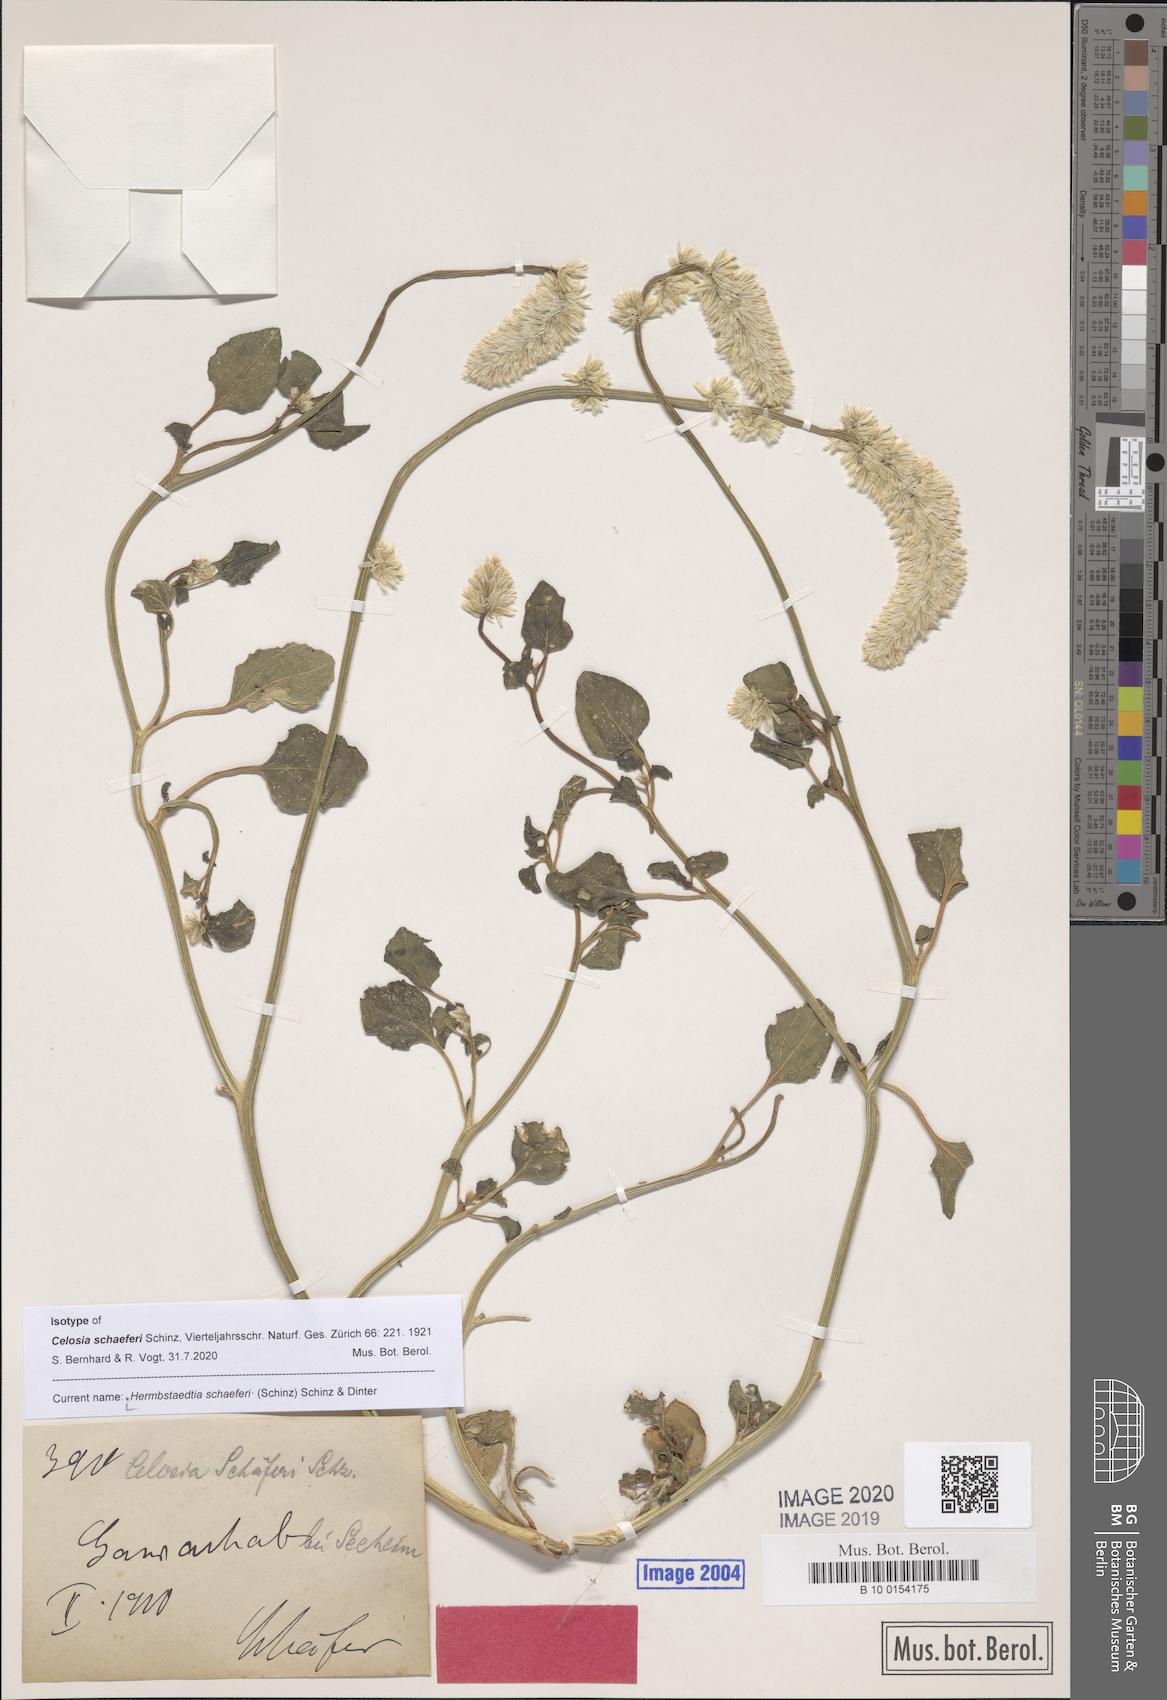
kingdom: Plantae
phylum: Tracheophyta
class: Magnoliopsida
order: Caryophyllales
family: Amaranthaceae
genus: Hermbstaedtia
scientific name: Hermbstaedtia schaeferi
